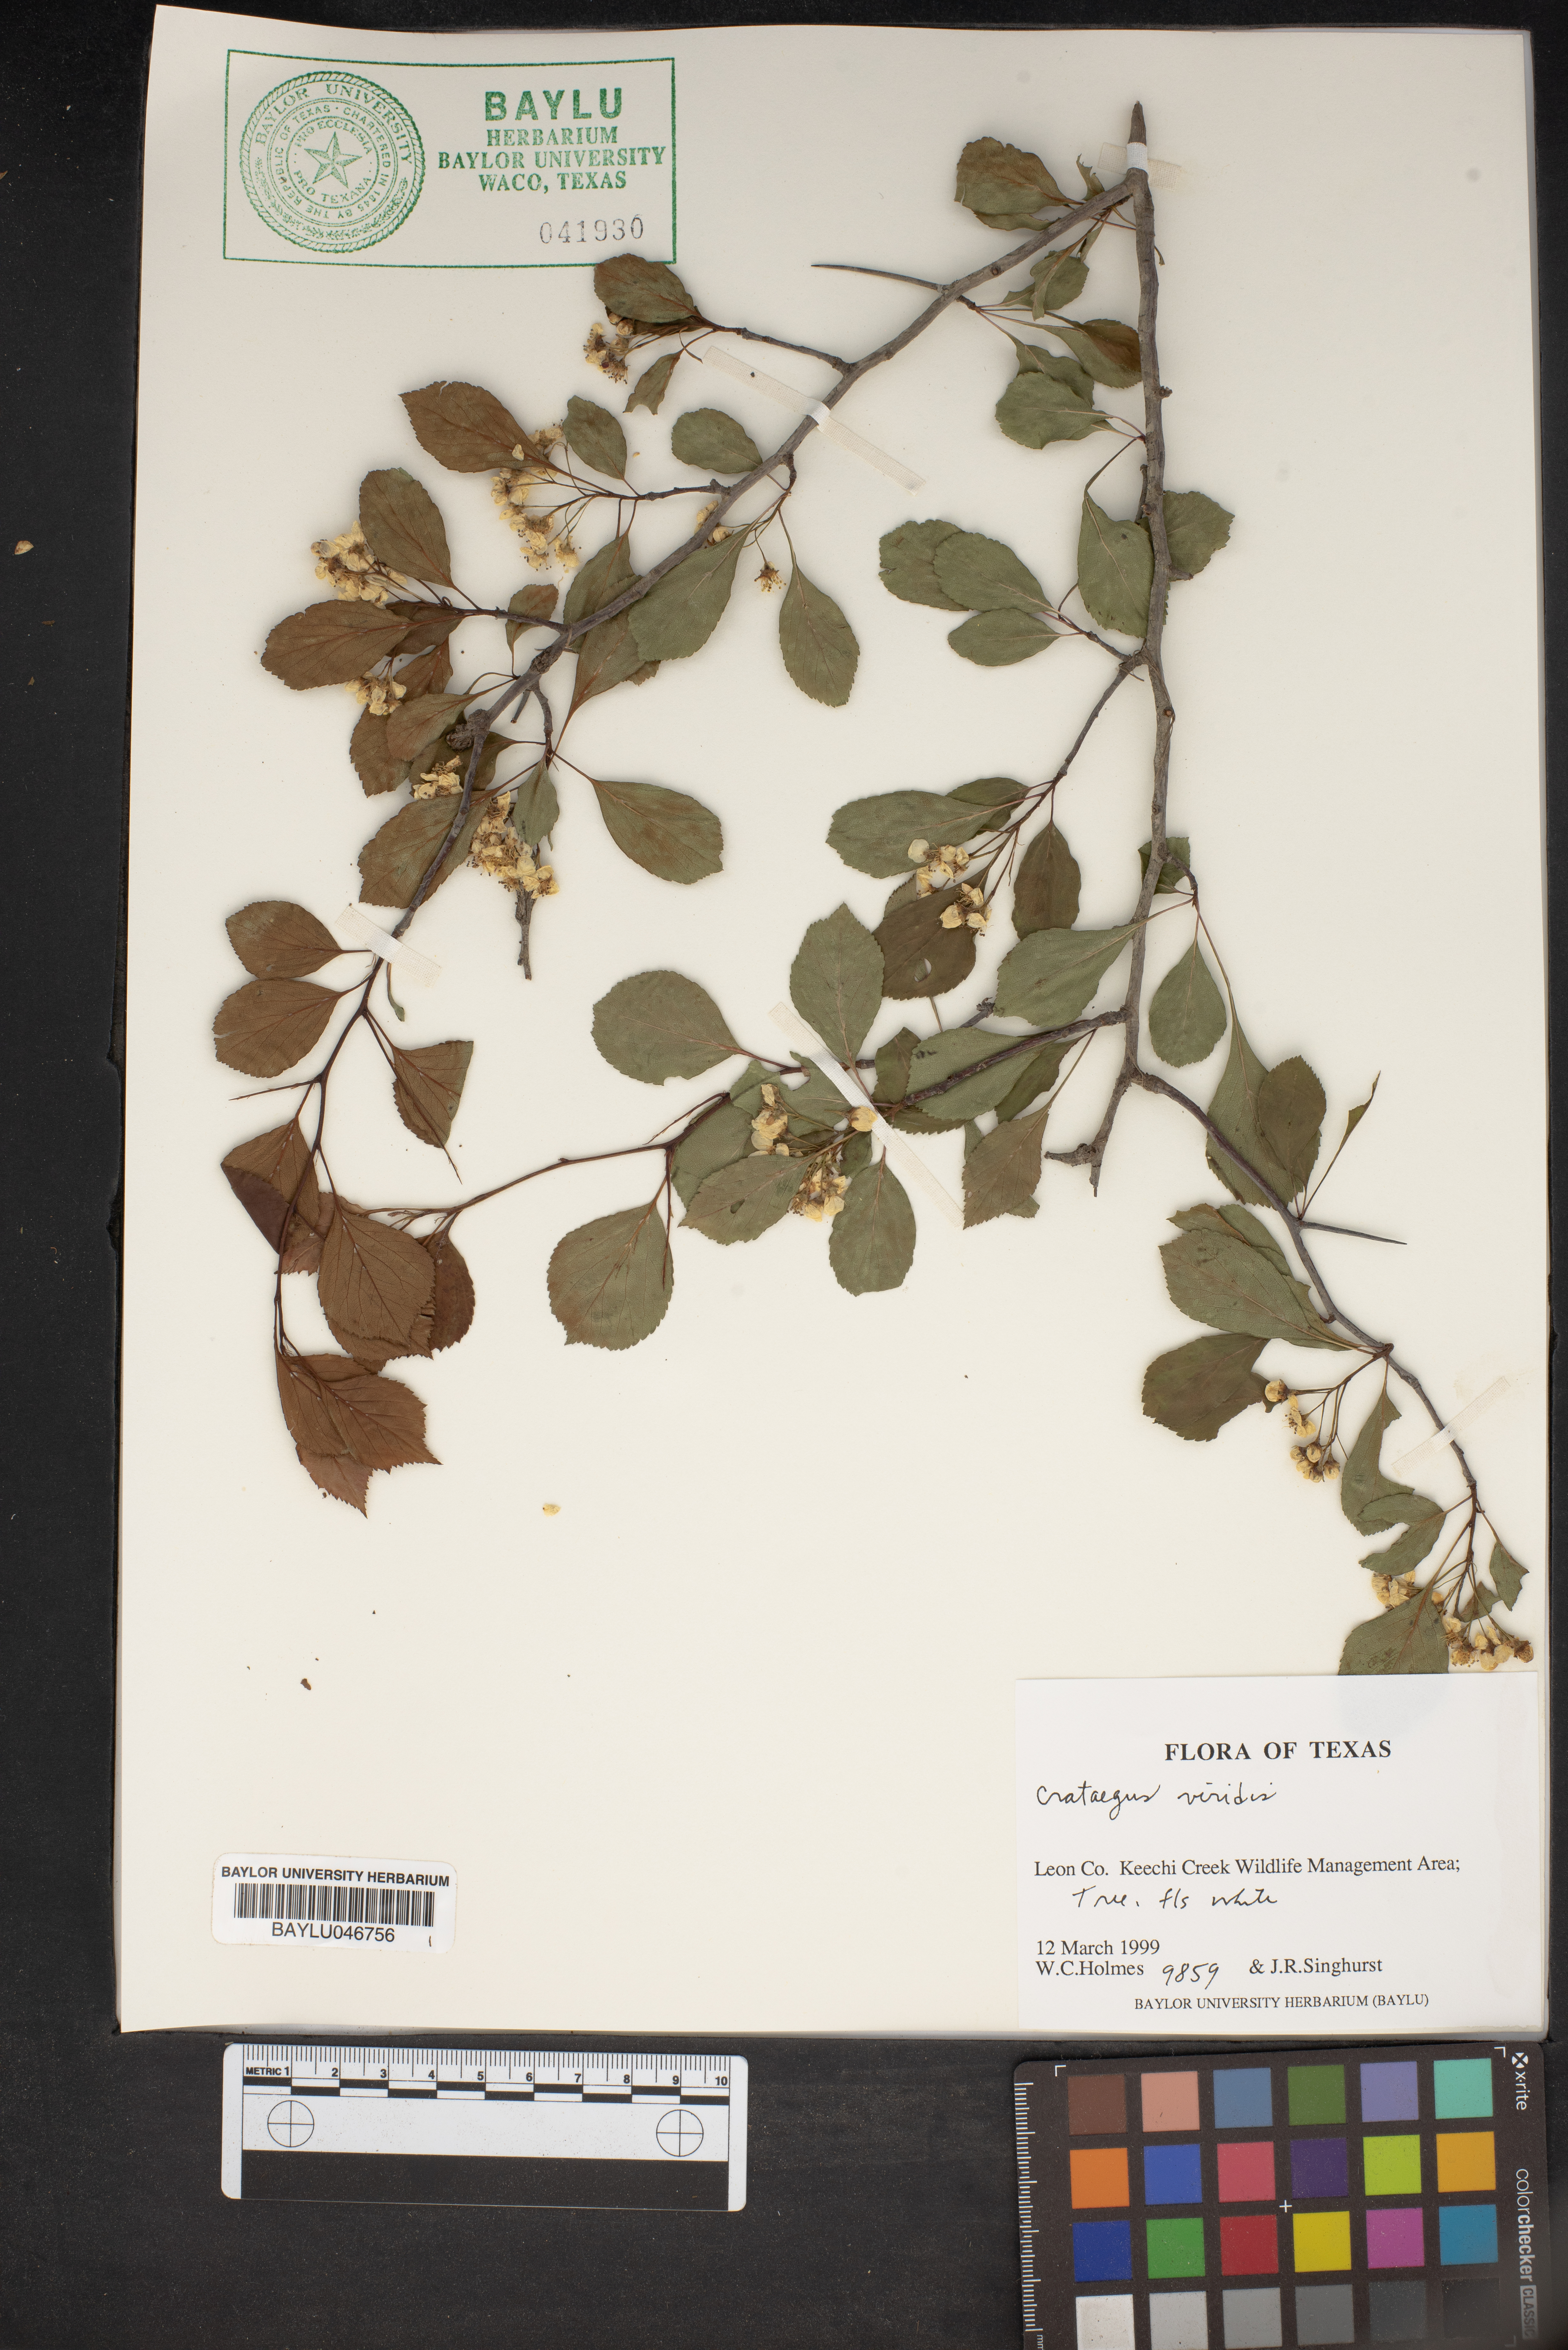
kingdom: Plantae
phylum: Tracheophyta
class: Magnoliopsida
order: Rosales
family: Rosaceae
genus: Crataegus
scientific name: Crataegus viridis
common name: Southernthorn
